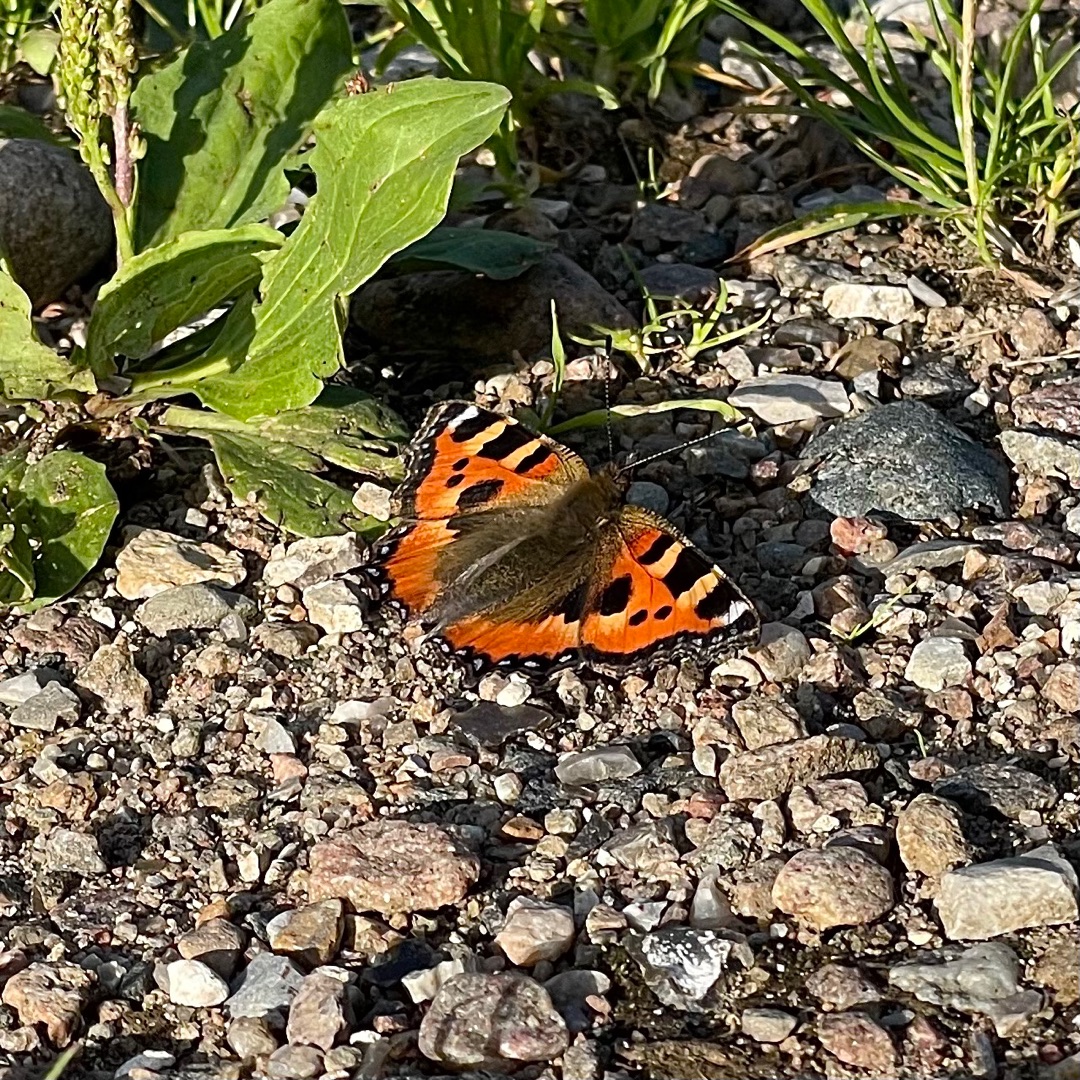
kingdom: Animalia
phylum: Arthropoda
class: Insecta
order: Lepidoptera
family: Nymphalidae
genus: Aglais
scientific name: Aglais urticae
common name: Nældens takvinge
